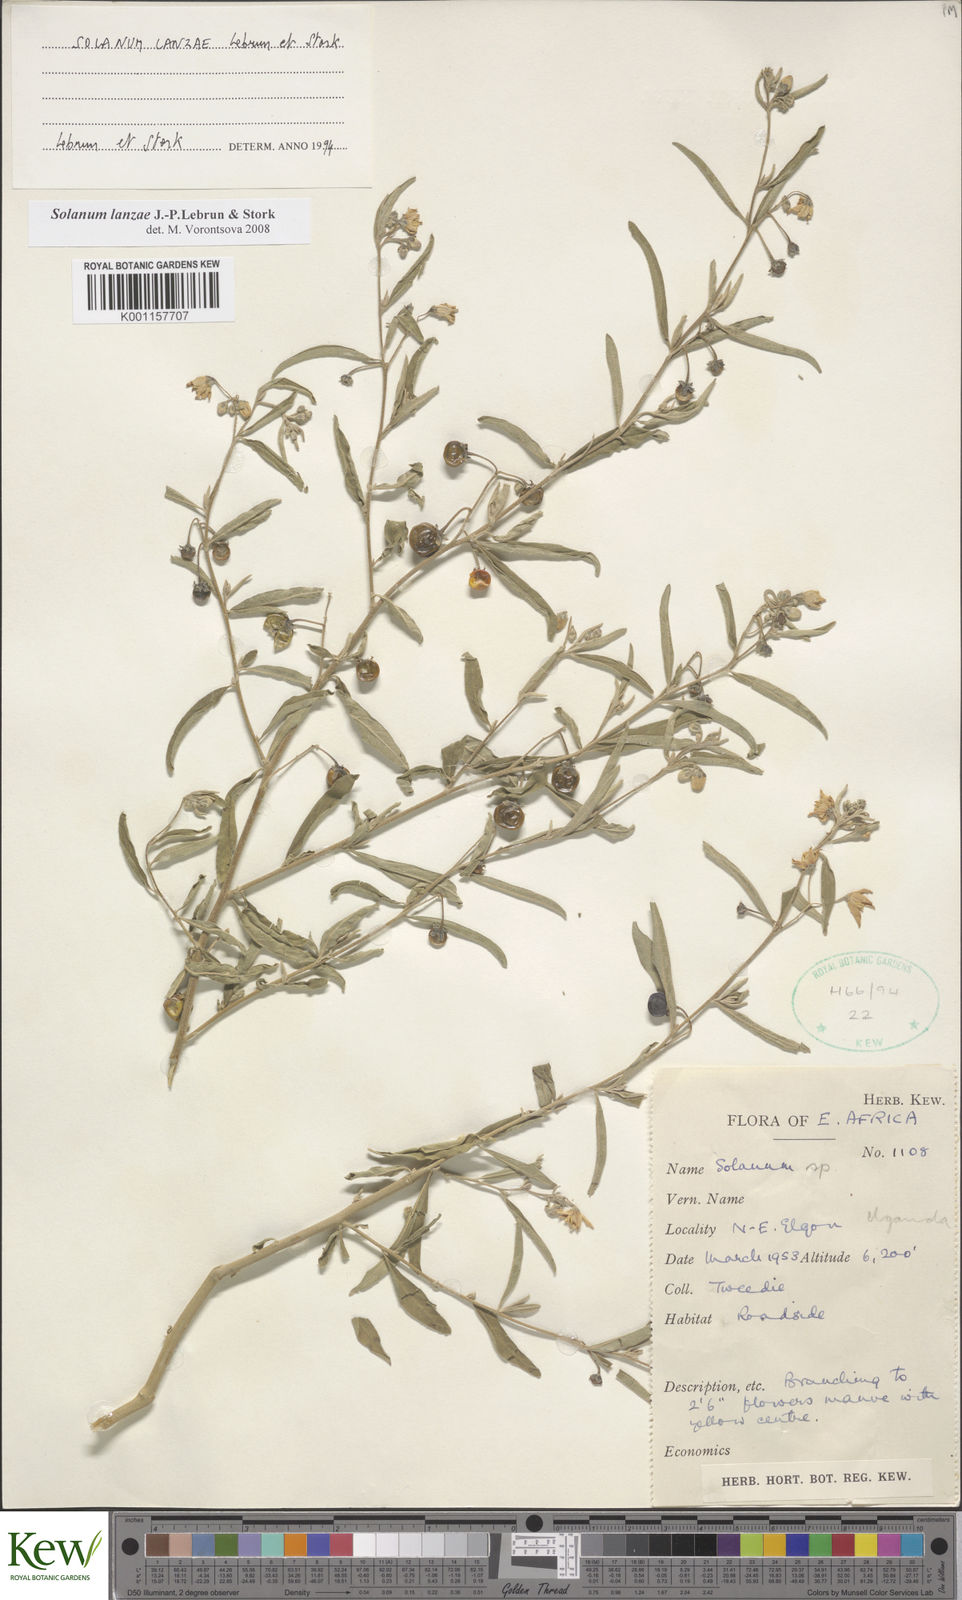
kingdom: Plantae
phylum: Tracheophyta
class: Magnoliopsida
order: Solanales
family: Solanaceae
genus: Solanum
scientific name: Solanum lanzae
